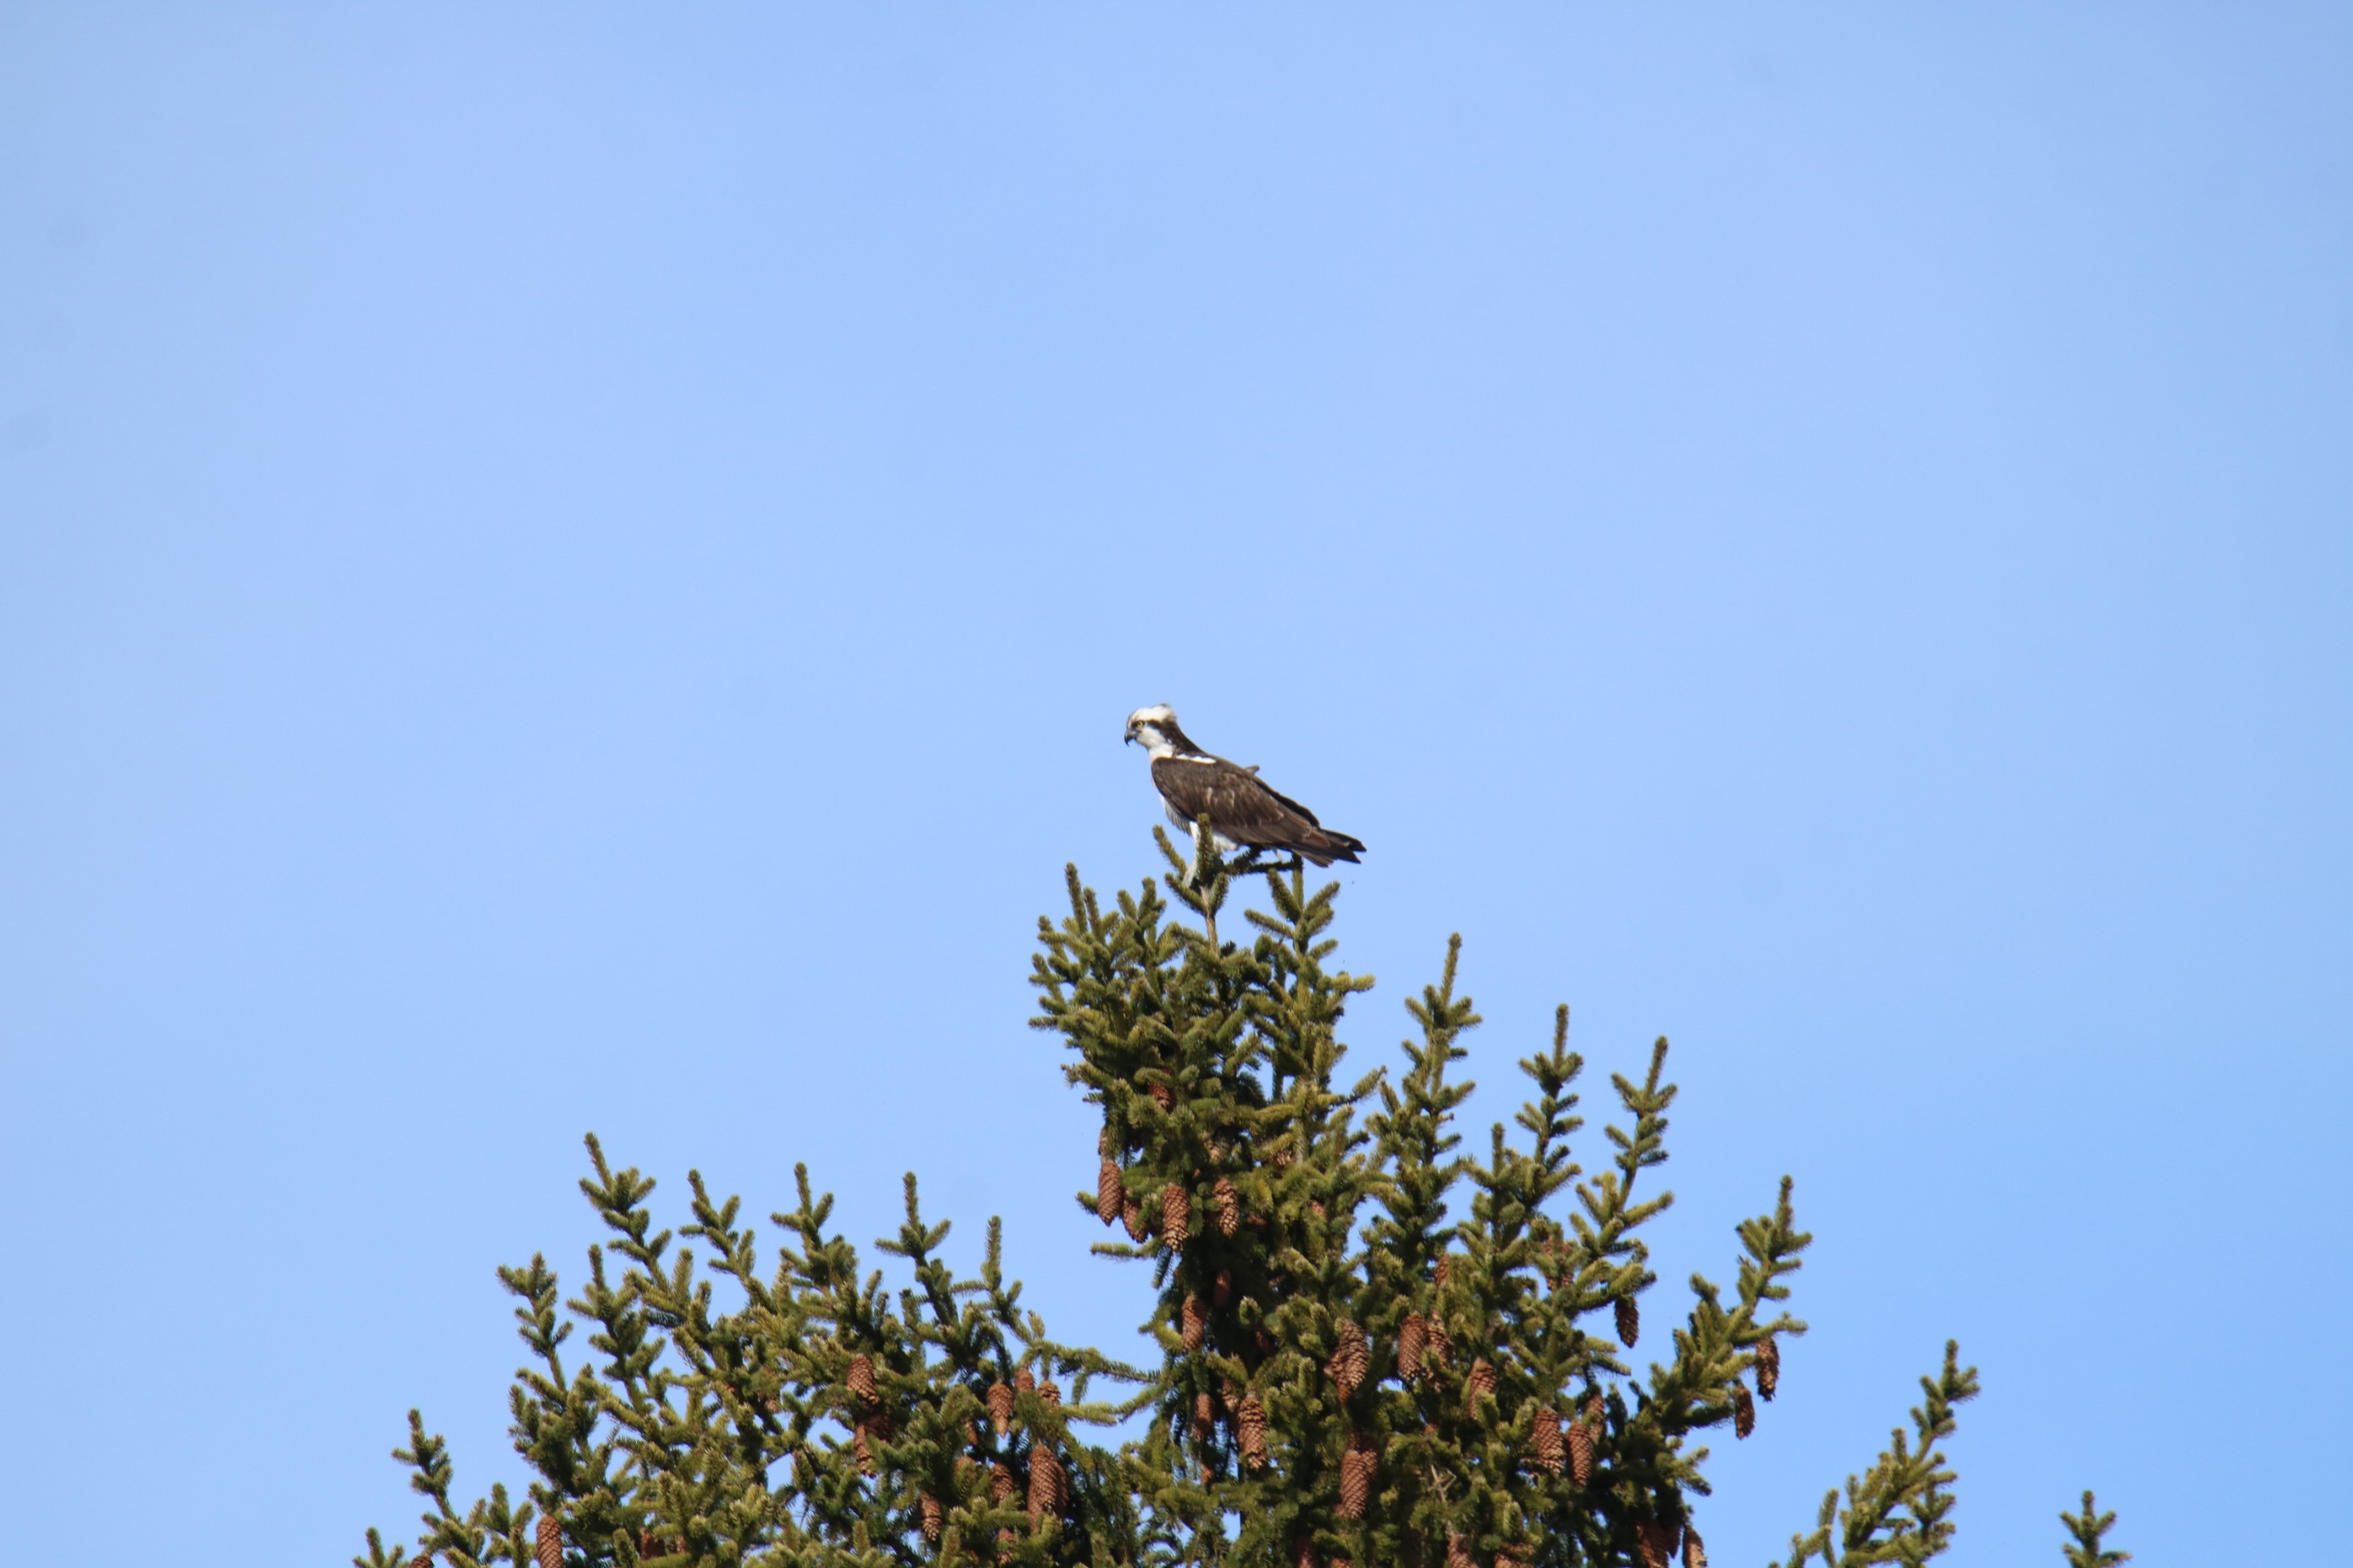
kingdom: Animalia
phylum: Chordata
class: Aves
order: Accipitriformes
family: Pandionidae
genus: Pandion
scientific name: Pandion haliaetus
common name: Fiskeørn
